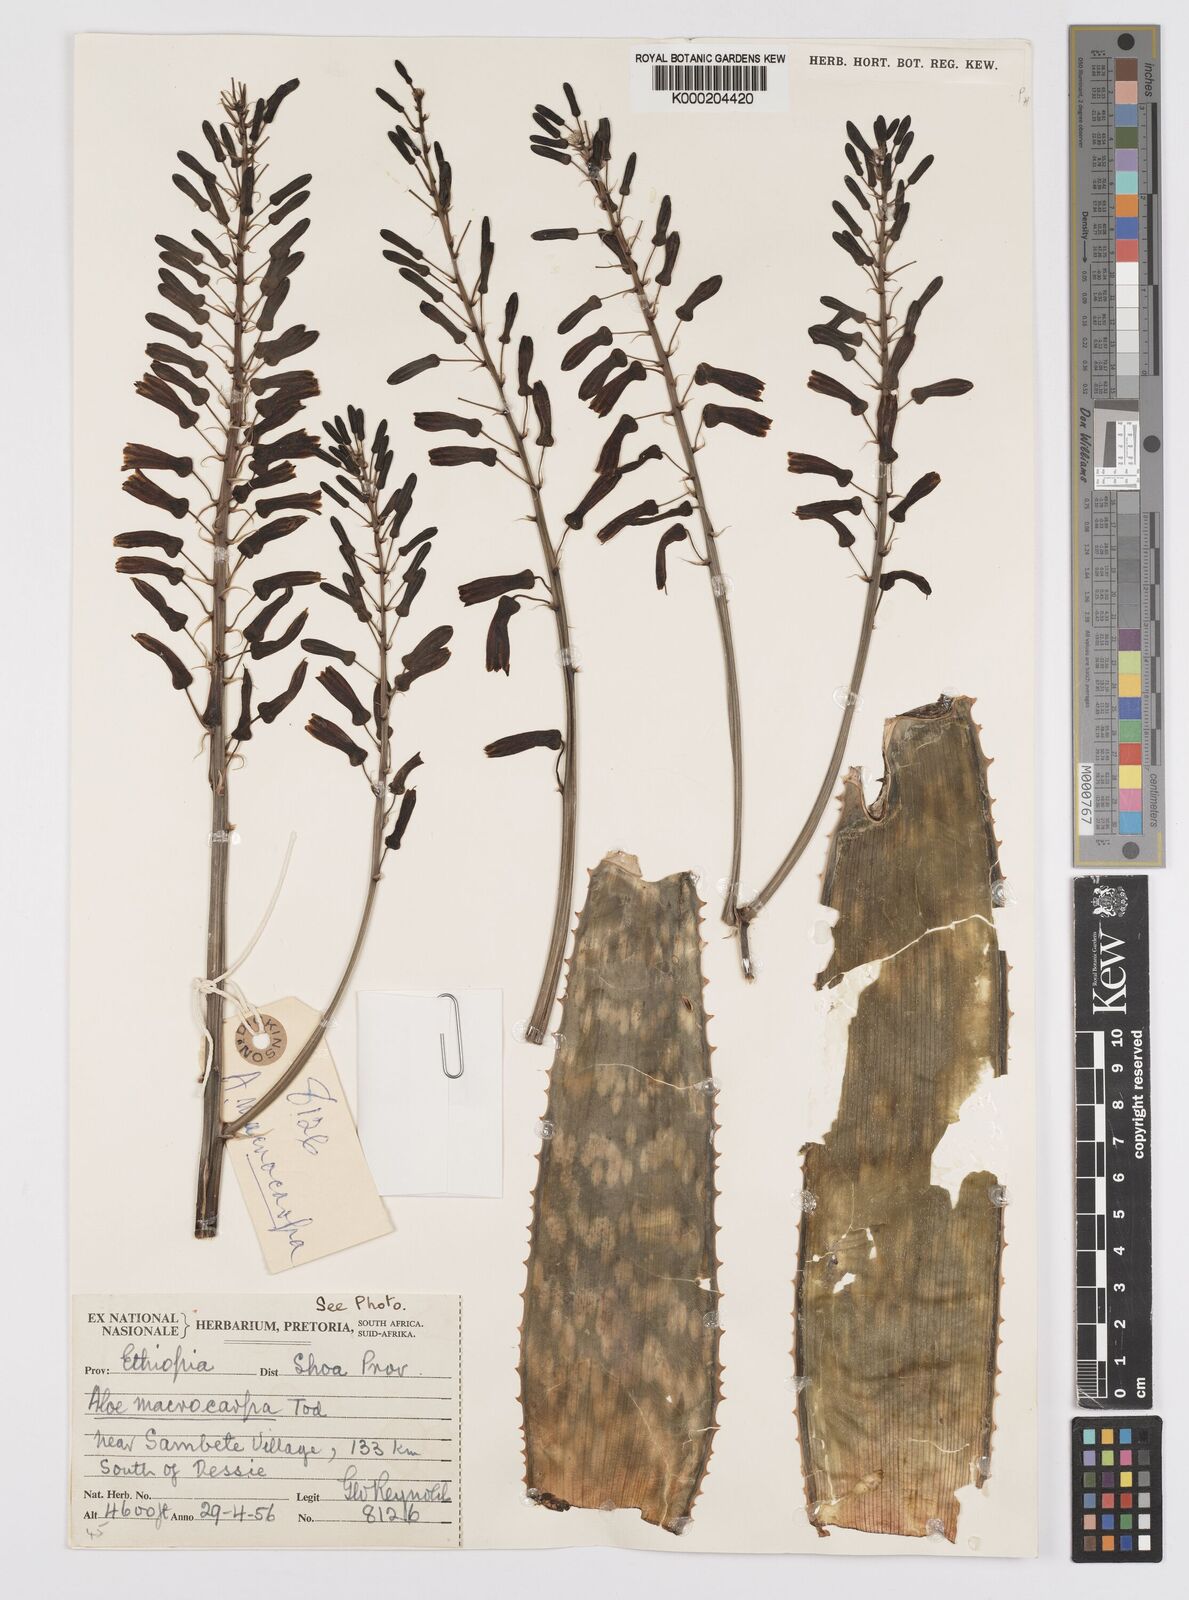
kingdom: Plantae
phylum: Tracheophyta
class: Liliopsida
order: Asparagales
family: Asphodelaceae
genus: Aloe
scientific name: Aloe macrocarpa
